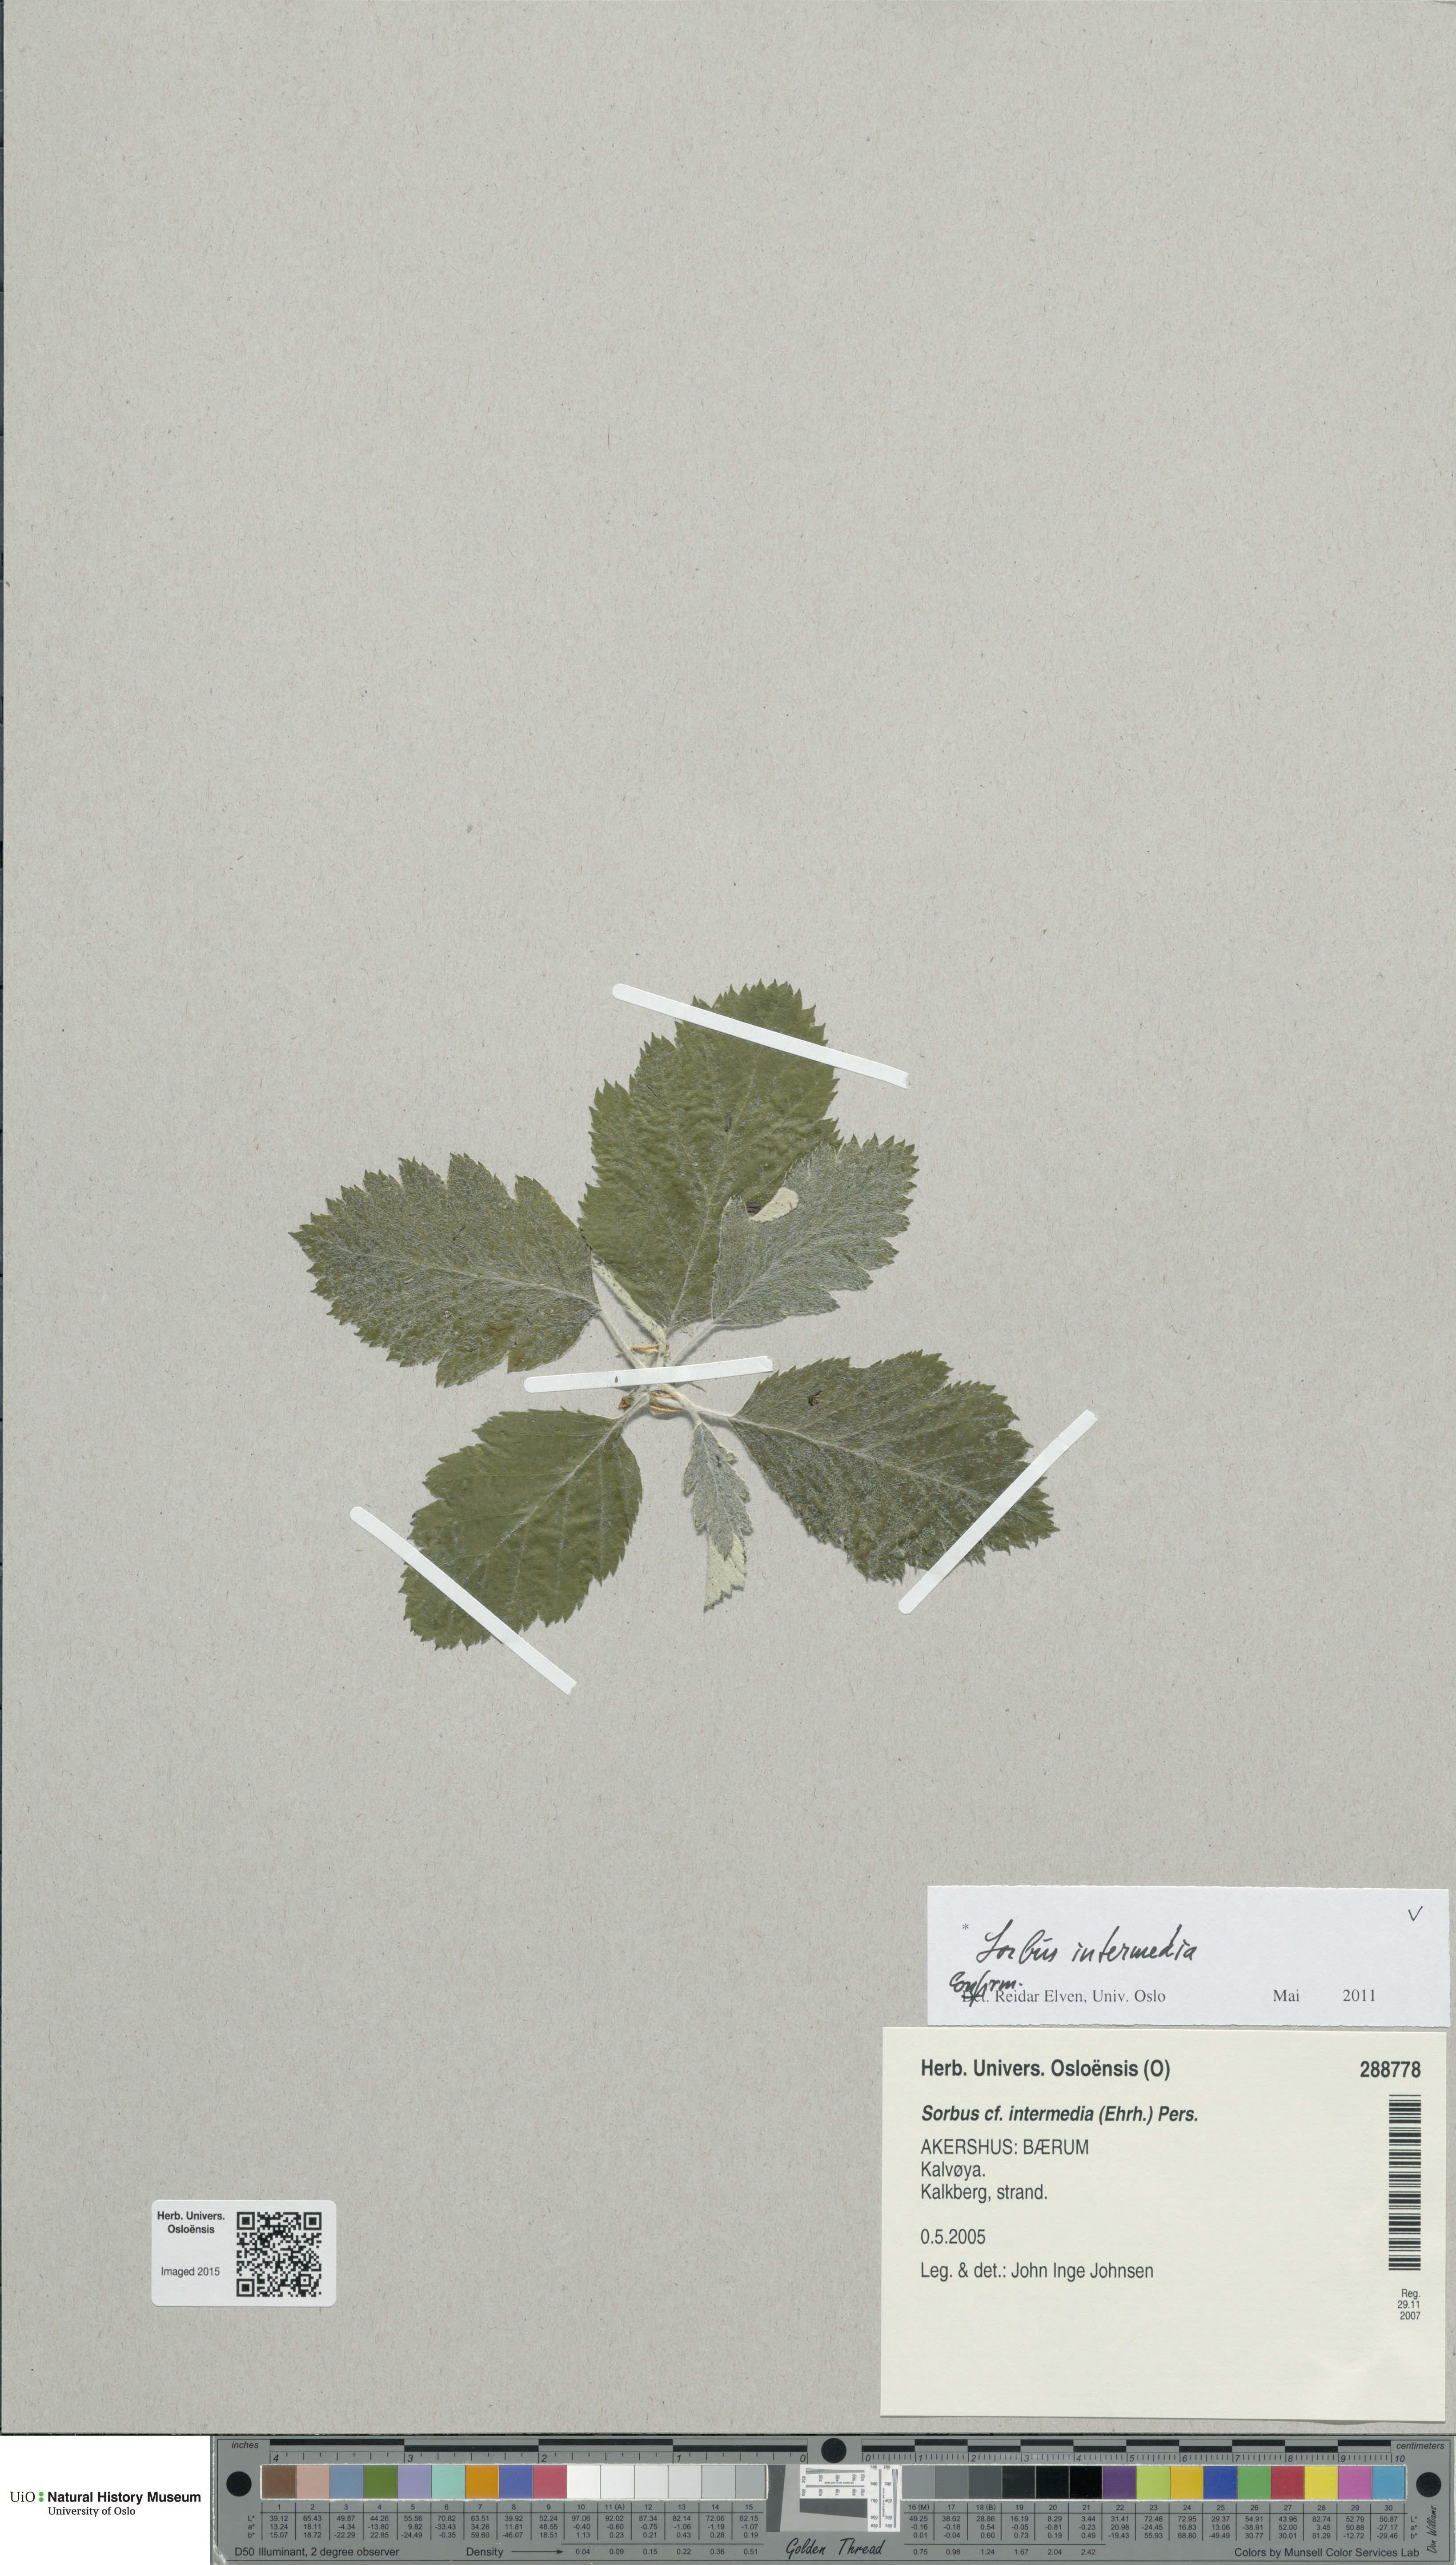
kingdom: Plantae
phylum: Tracheophyta
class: Magnoliopsida
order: Rosales
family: Rosaceae
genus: Scandosorbus
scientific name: Scandosorbus intermedia
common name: Swedish whitebeam
